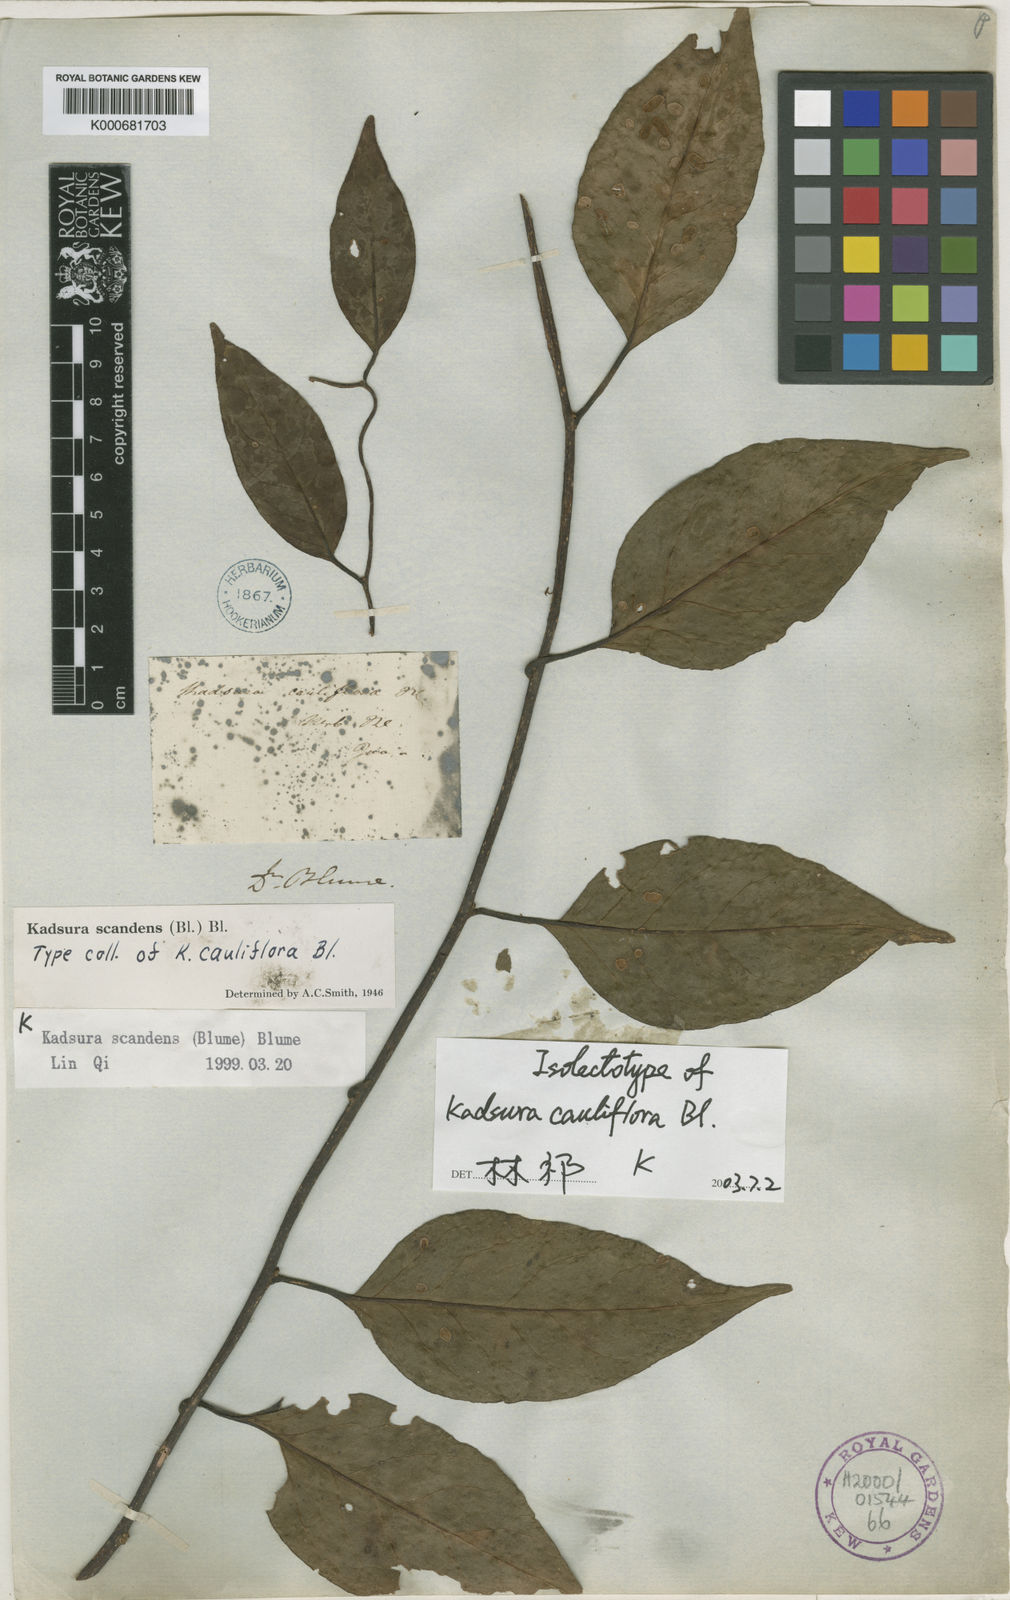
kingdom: Plantae
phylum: Tracheophyta
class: Magnoliopsida
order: Austrobaileyales
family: Schisandraceae
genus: Kadsura
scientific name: Kadsura scandens
